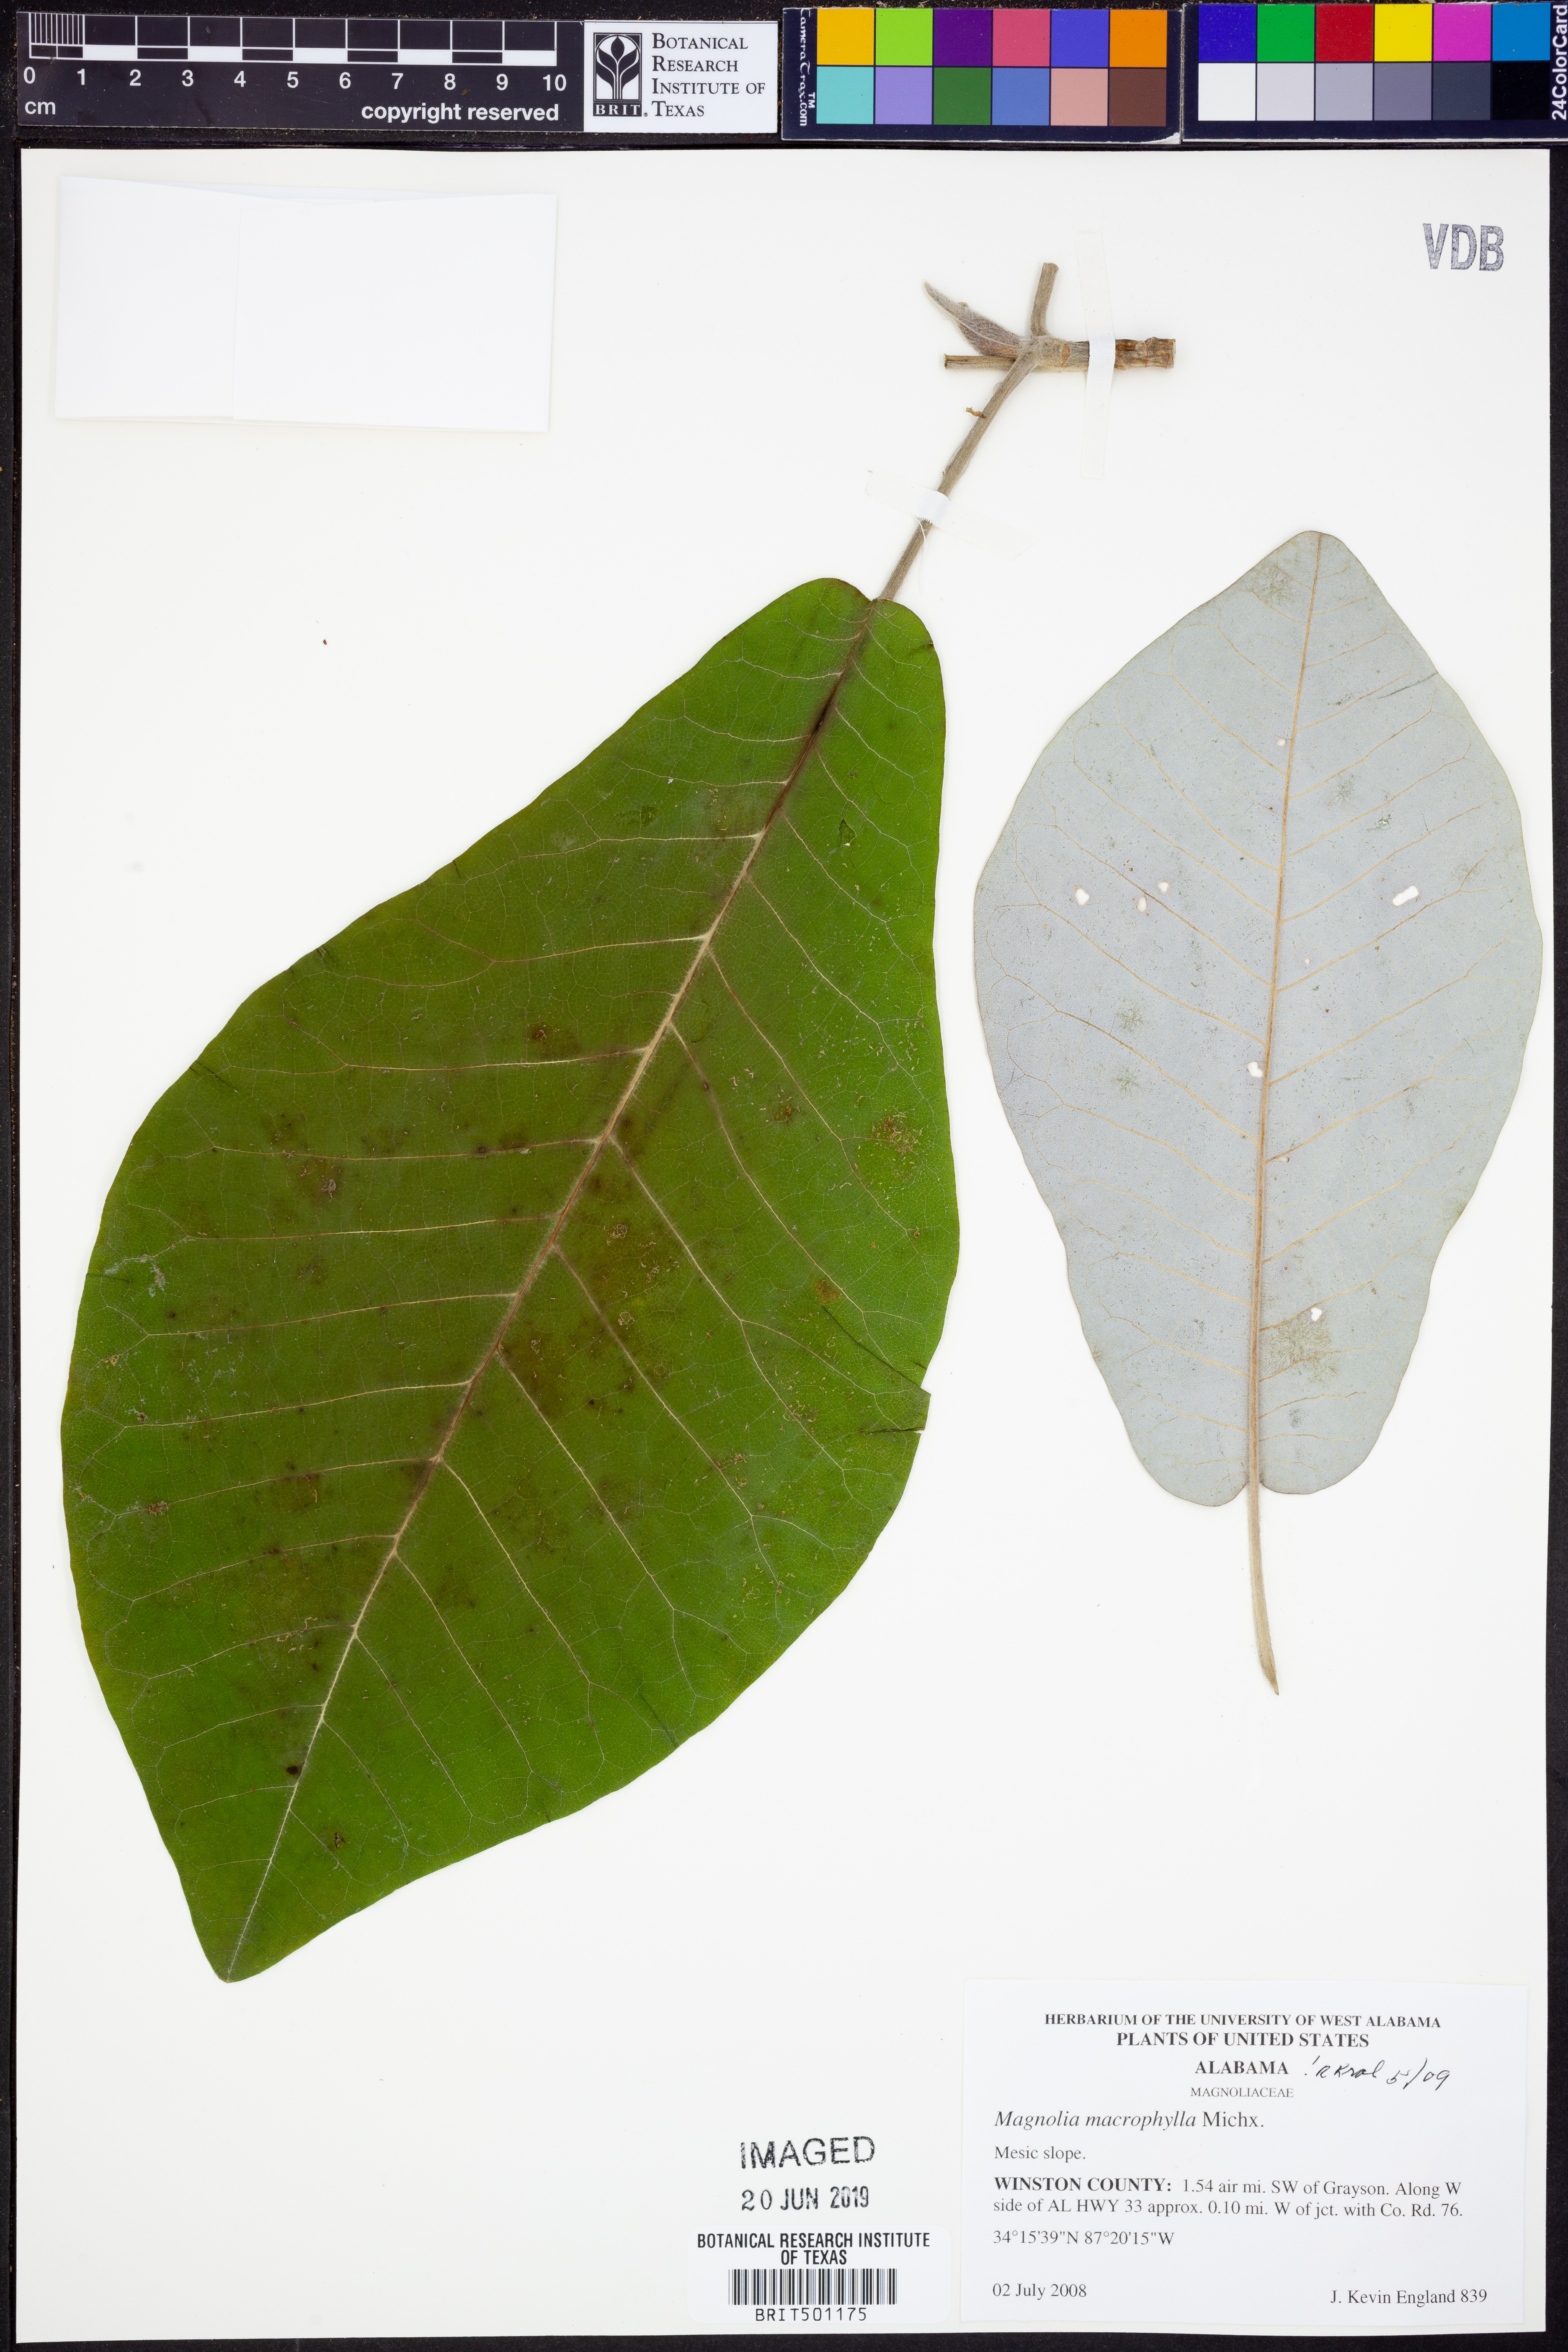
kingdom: Plantae
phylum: Tracheophyta
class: Magnoliopsida
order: Magnoliales
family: Magnoliaceae
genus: Magnolia
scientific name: Magnolia macrophylla
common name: Big-leaf magnolia
